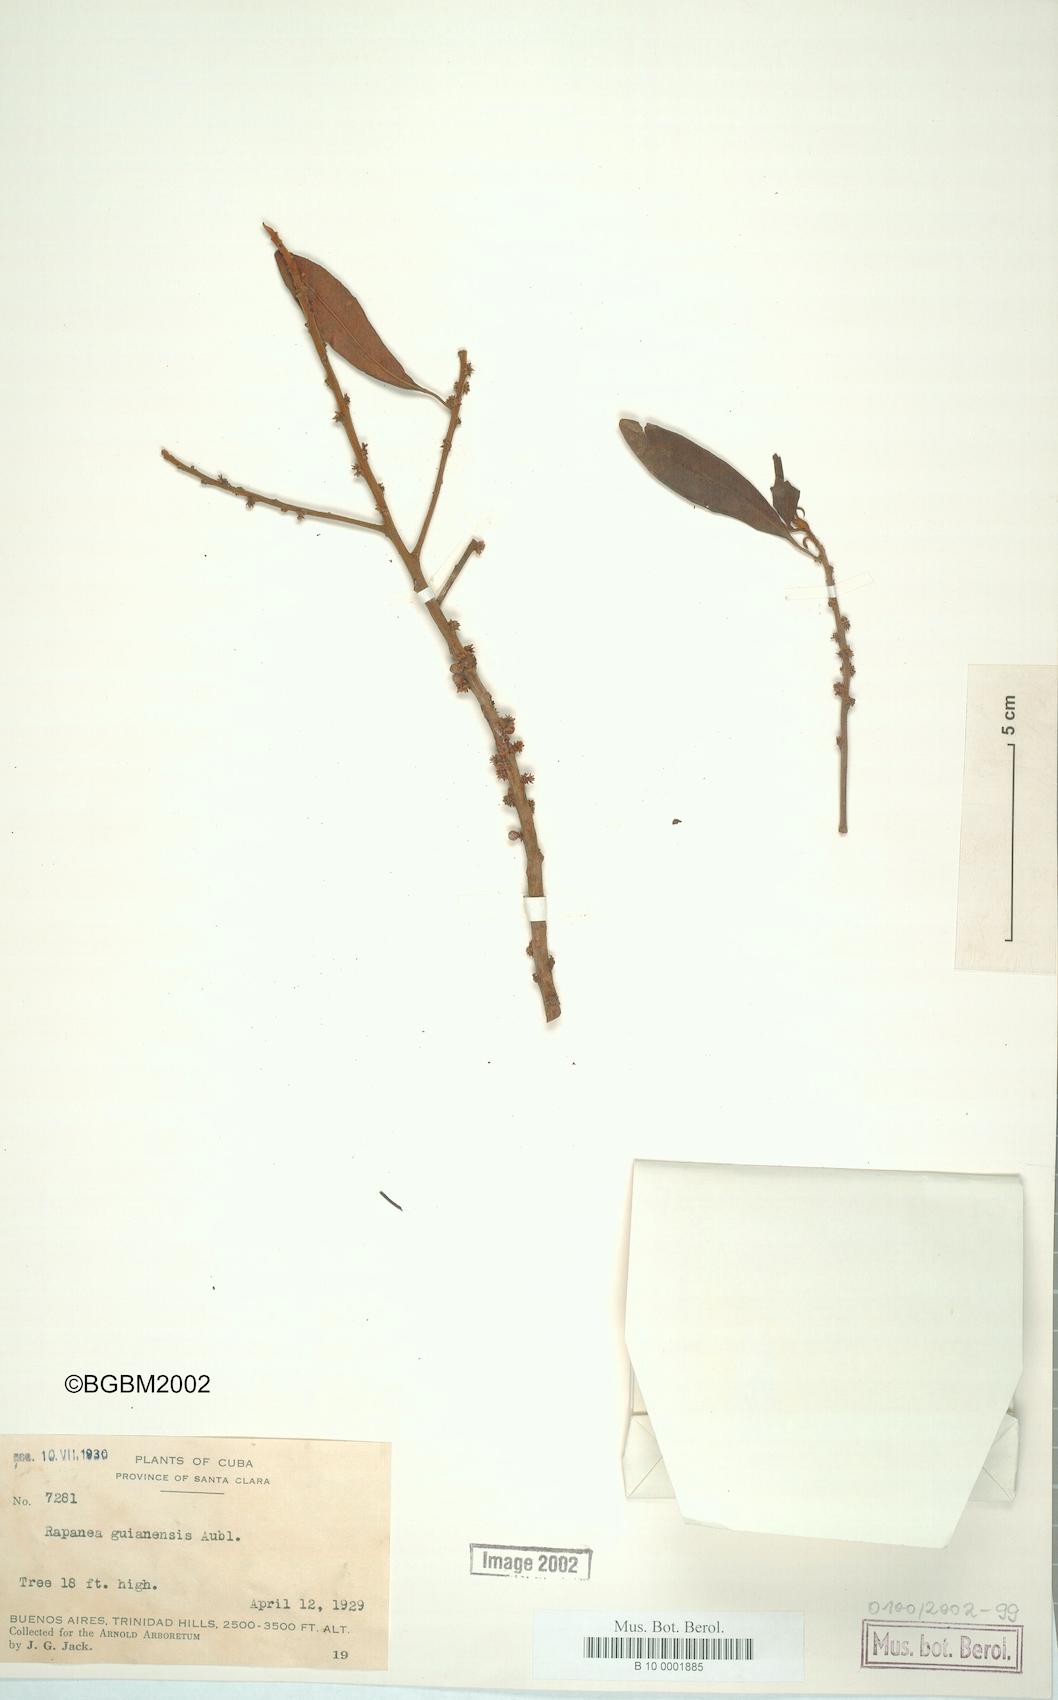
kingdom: Plantae
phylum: Tracheophyta
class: Magnoliopsida
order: Ericales
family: Primulaceae
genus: Myrsine
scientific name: Myrsine guianensis
